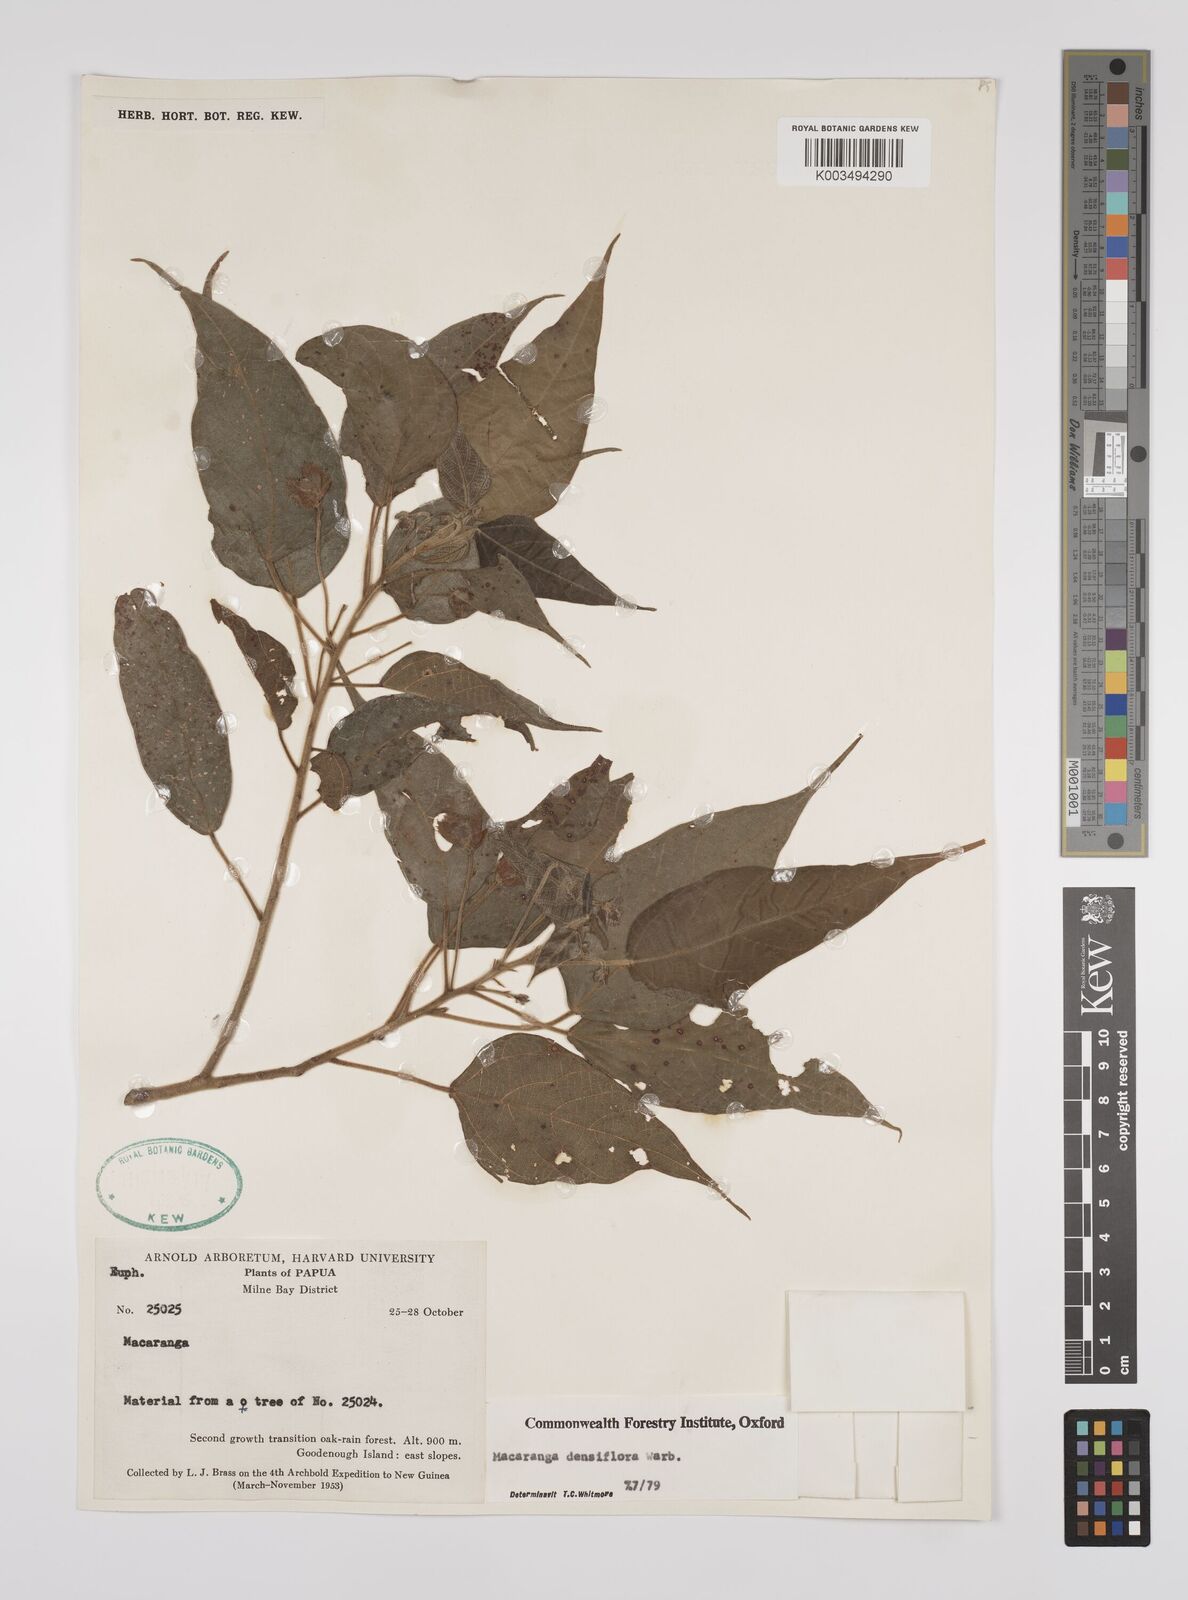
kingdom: Plantae
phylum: Tracheophyta
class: Magnoliopsida
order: Malpighiales
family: Euphorbiaceae
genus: Macaranga
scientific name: Macaranga densiflora
